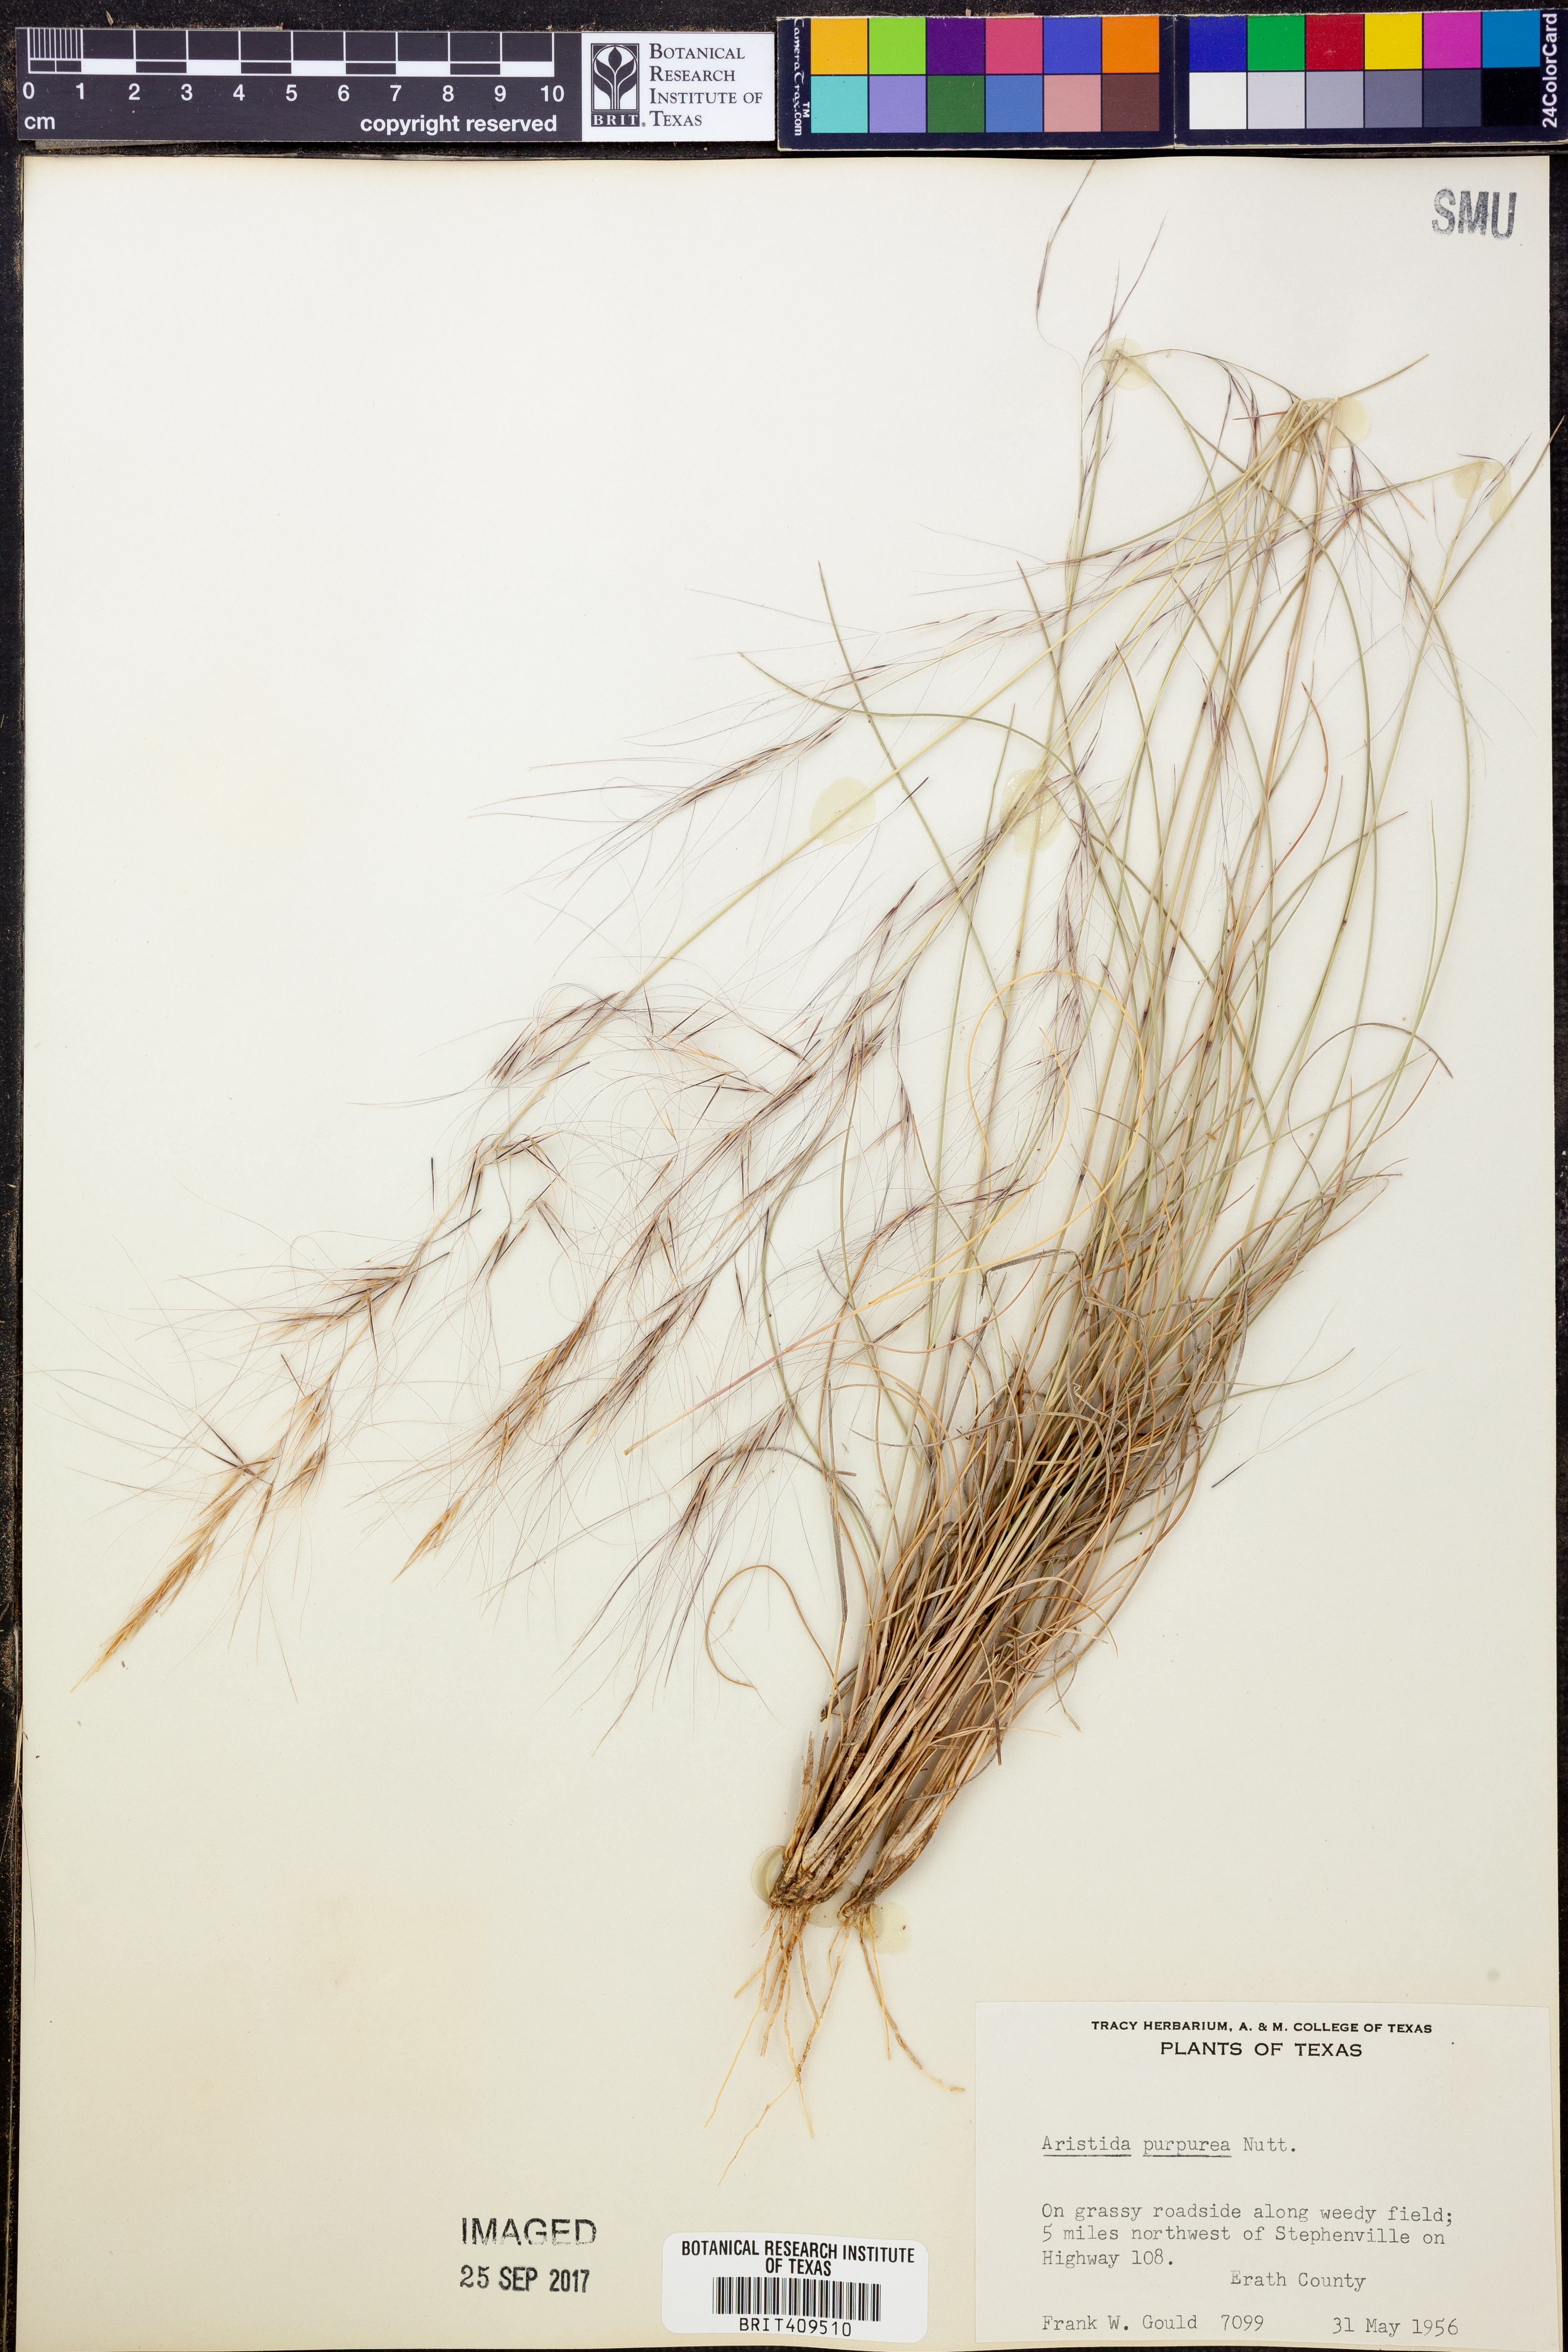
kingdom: Plantae
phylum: Tracheophyta
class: Liliopsida
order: Poales
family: Poaceae
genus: Aristida
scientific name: Aristida purpurea
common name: Purple threeawn
